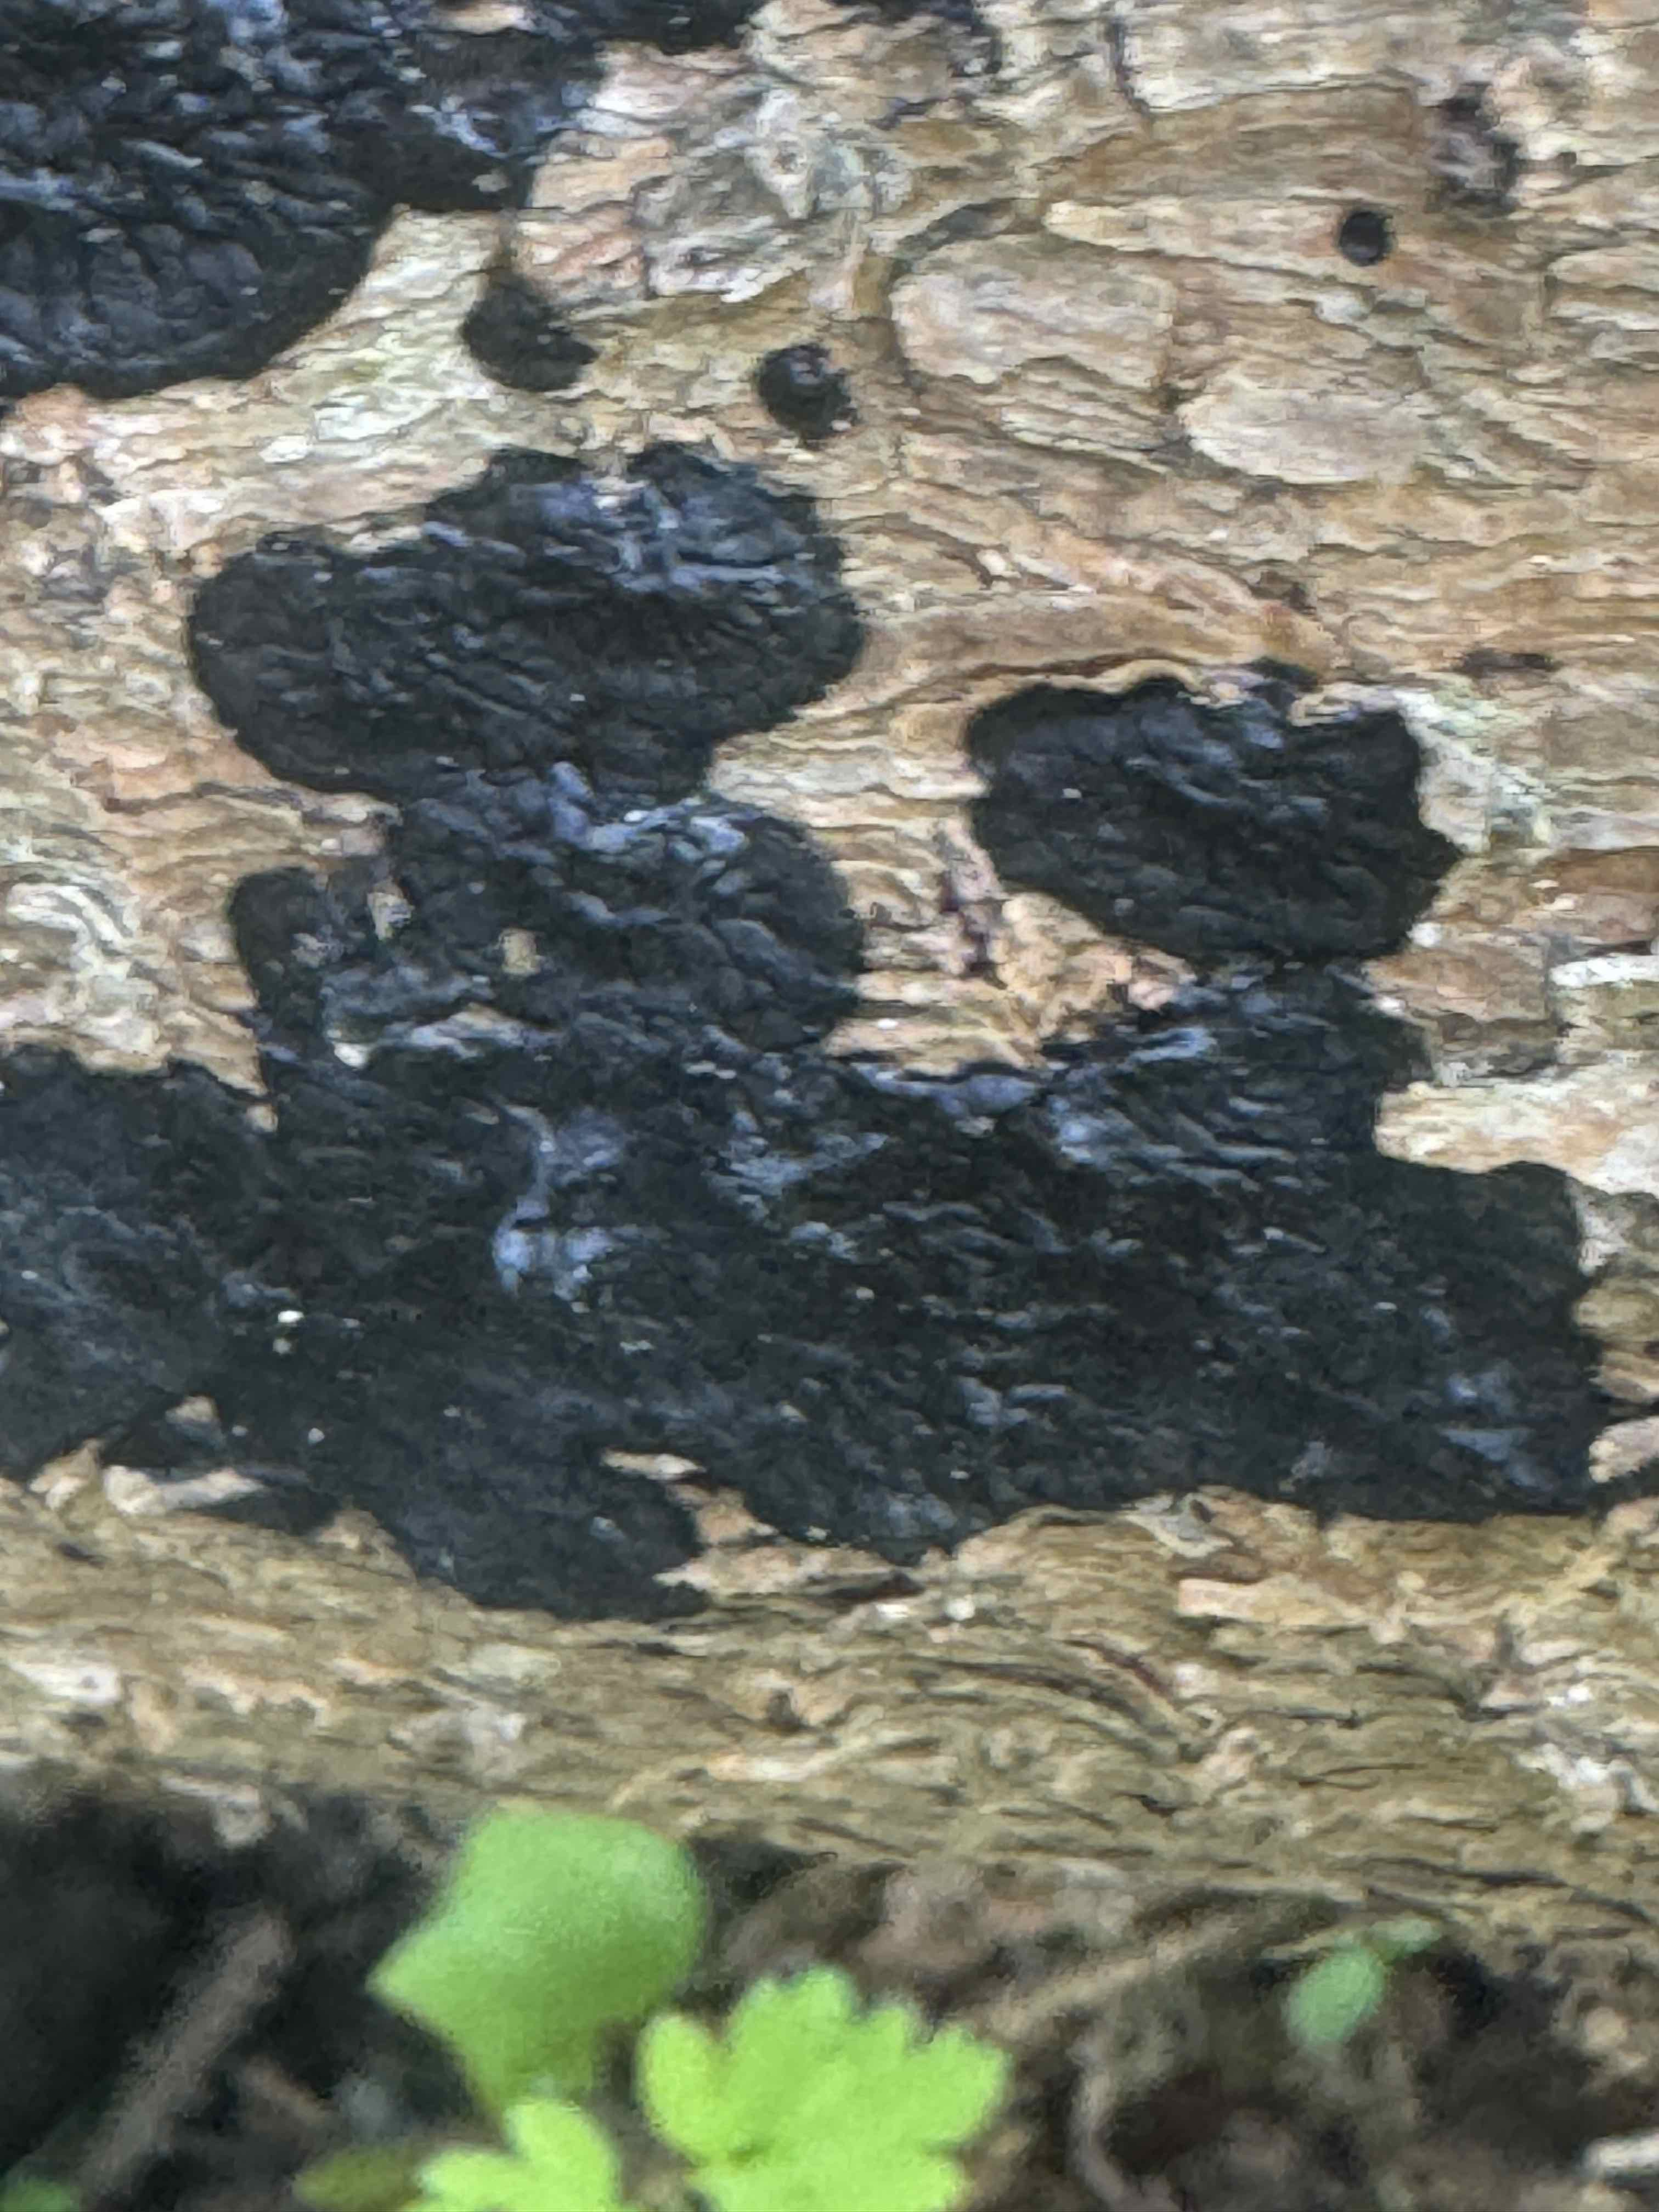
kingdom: Fungi
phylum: Basidiomycota
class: Agaricomycetes
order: Auriculariales
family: Auriculariaceae
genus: Exidia
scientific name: Exidia pithya
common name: gran-bævretop
